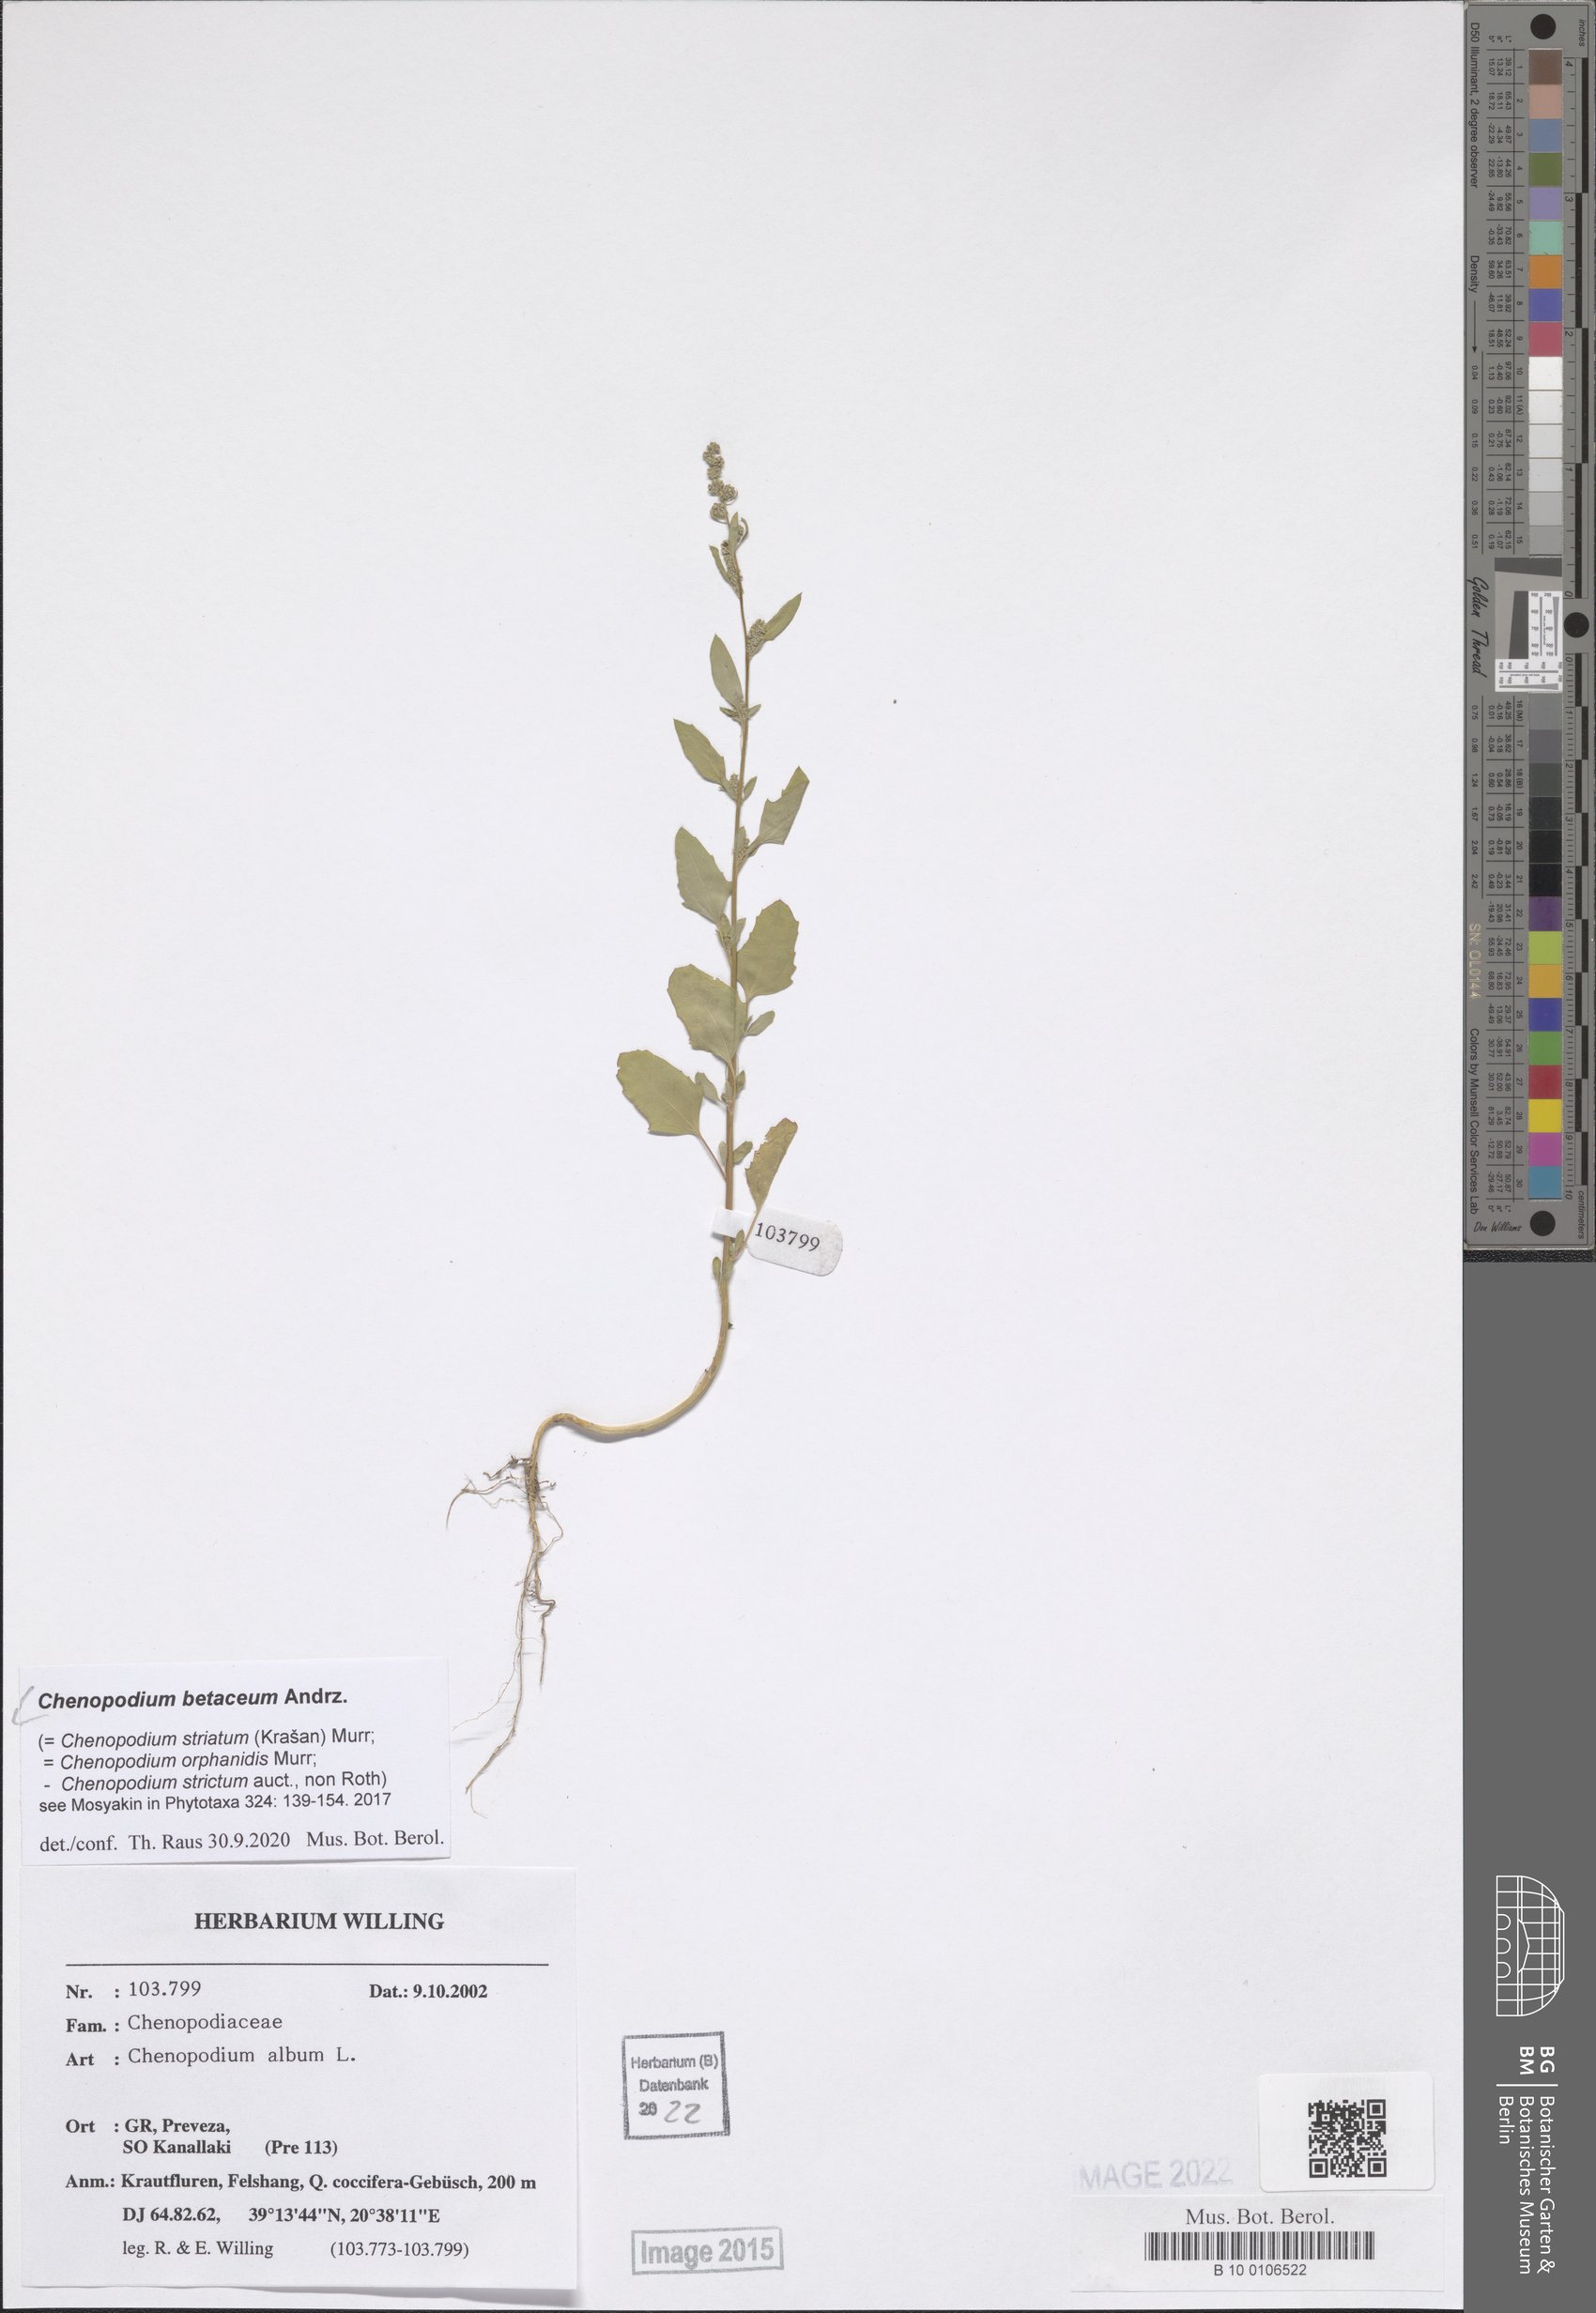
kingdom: Plantae
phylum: Tracheophyta
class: Magnoliopsida
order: Caryophyllales
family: Amaranthaceae
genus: Chenopodium
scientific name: Chenopodium betaceum
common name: Striped goosefoot
